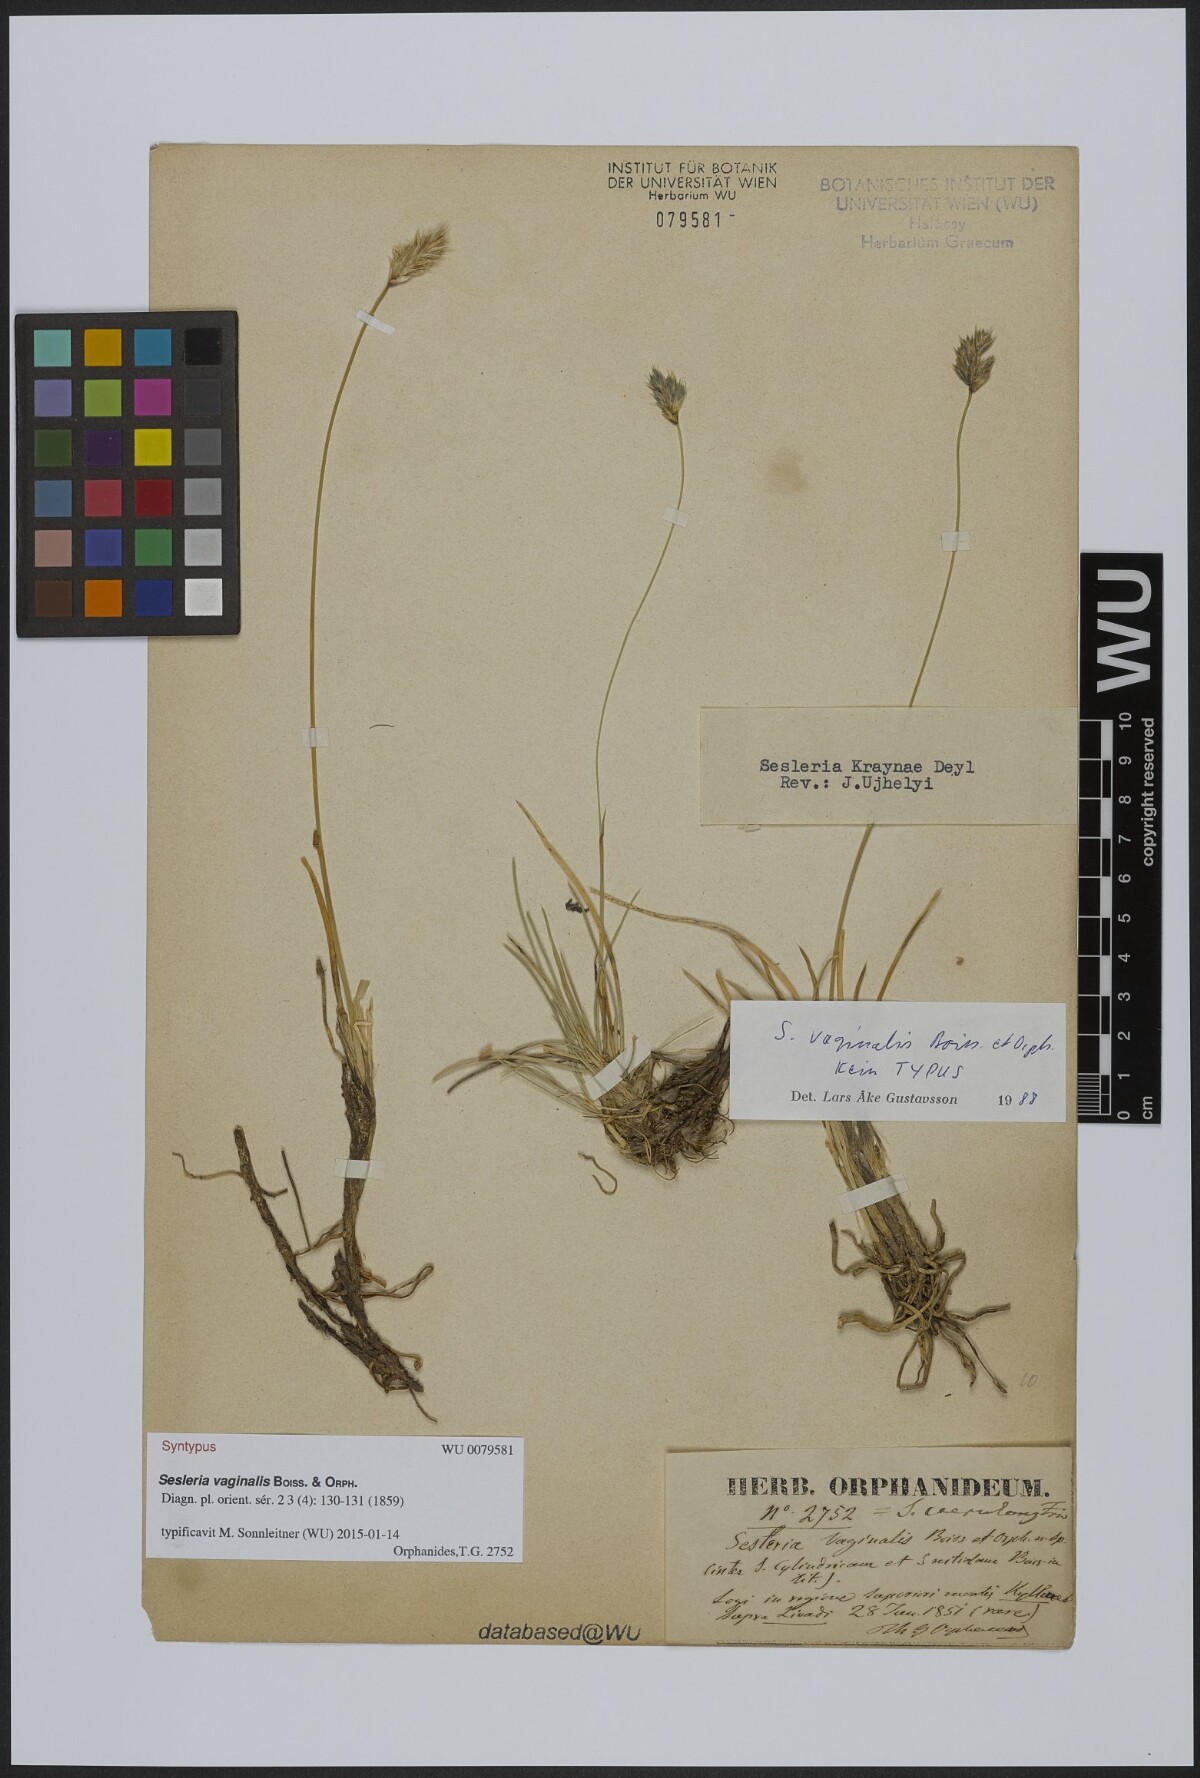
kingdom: Plantae
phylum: Tracheophyta
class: Liliopsida
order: Poales
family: Poaceae
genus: Sesleria
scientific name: Sesleria vaginalis
